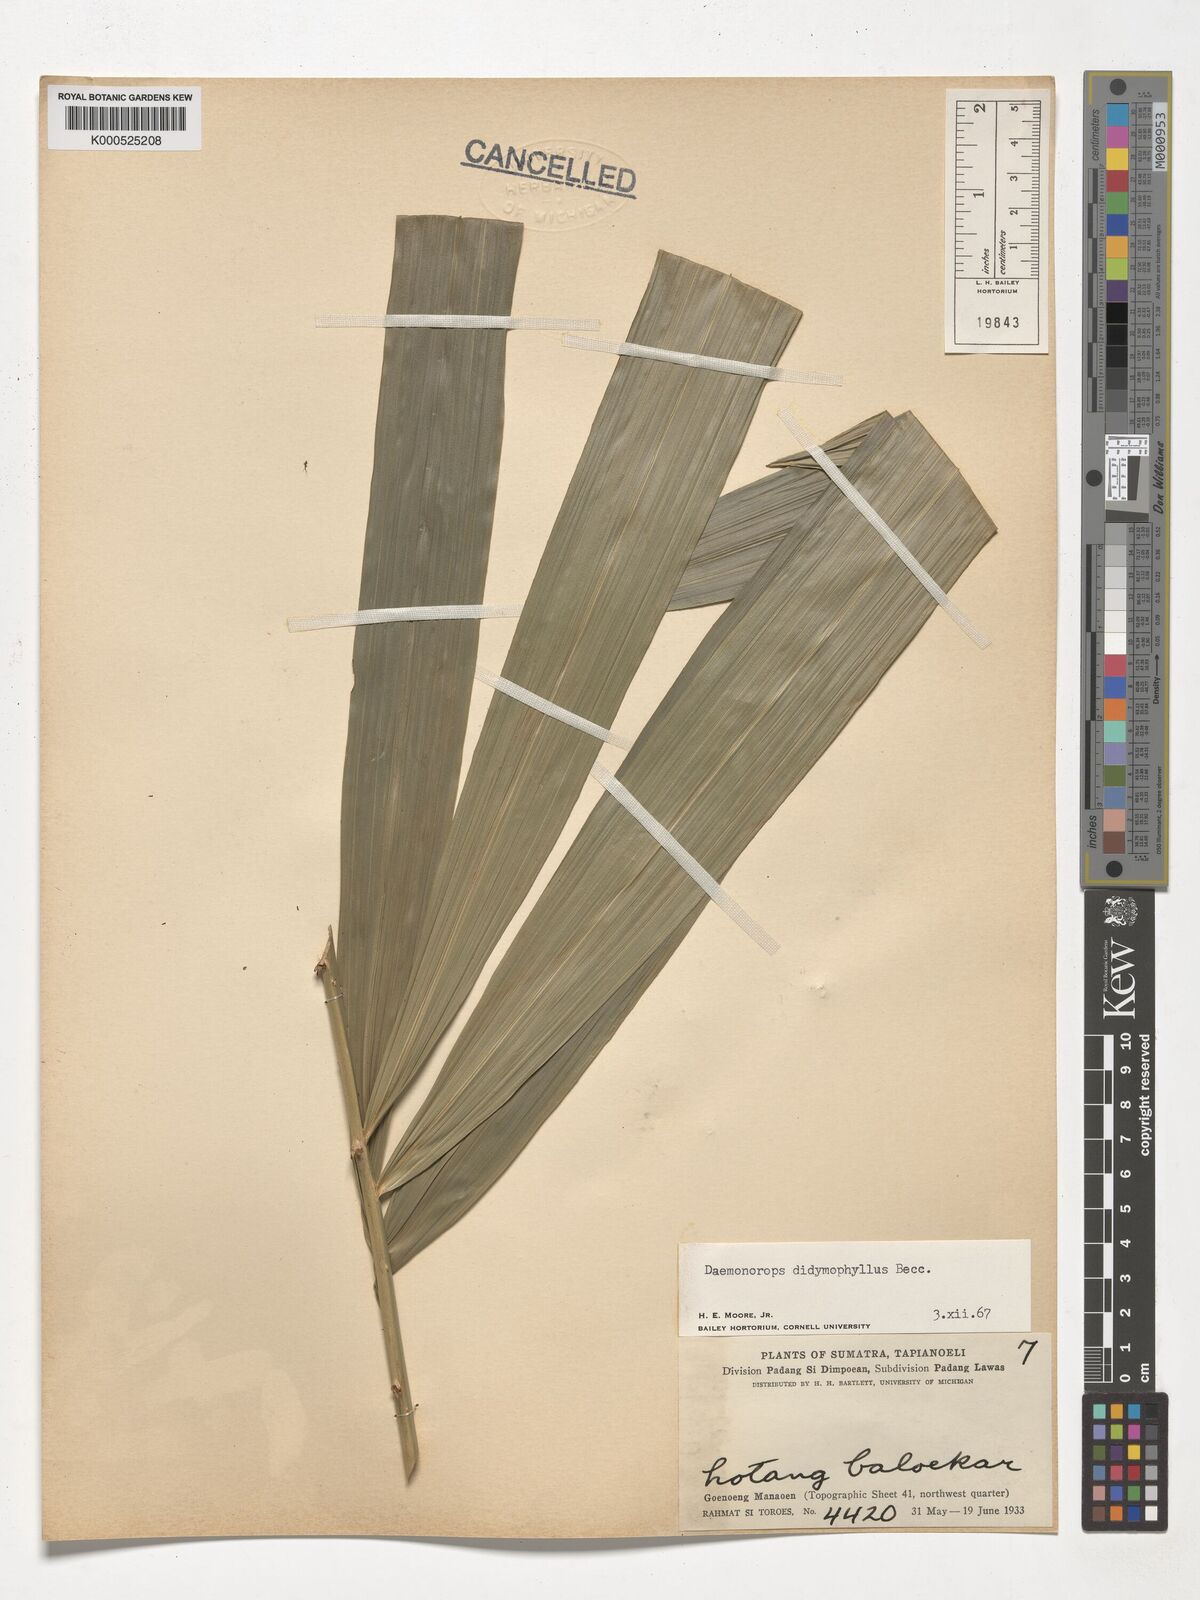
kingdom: Plantae
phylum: Tracheophyta
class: Liliopsida
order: Arecales
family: Arecaceae
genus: Calamus
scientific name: Calamus gracilipes
